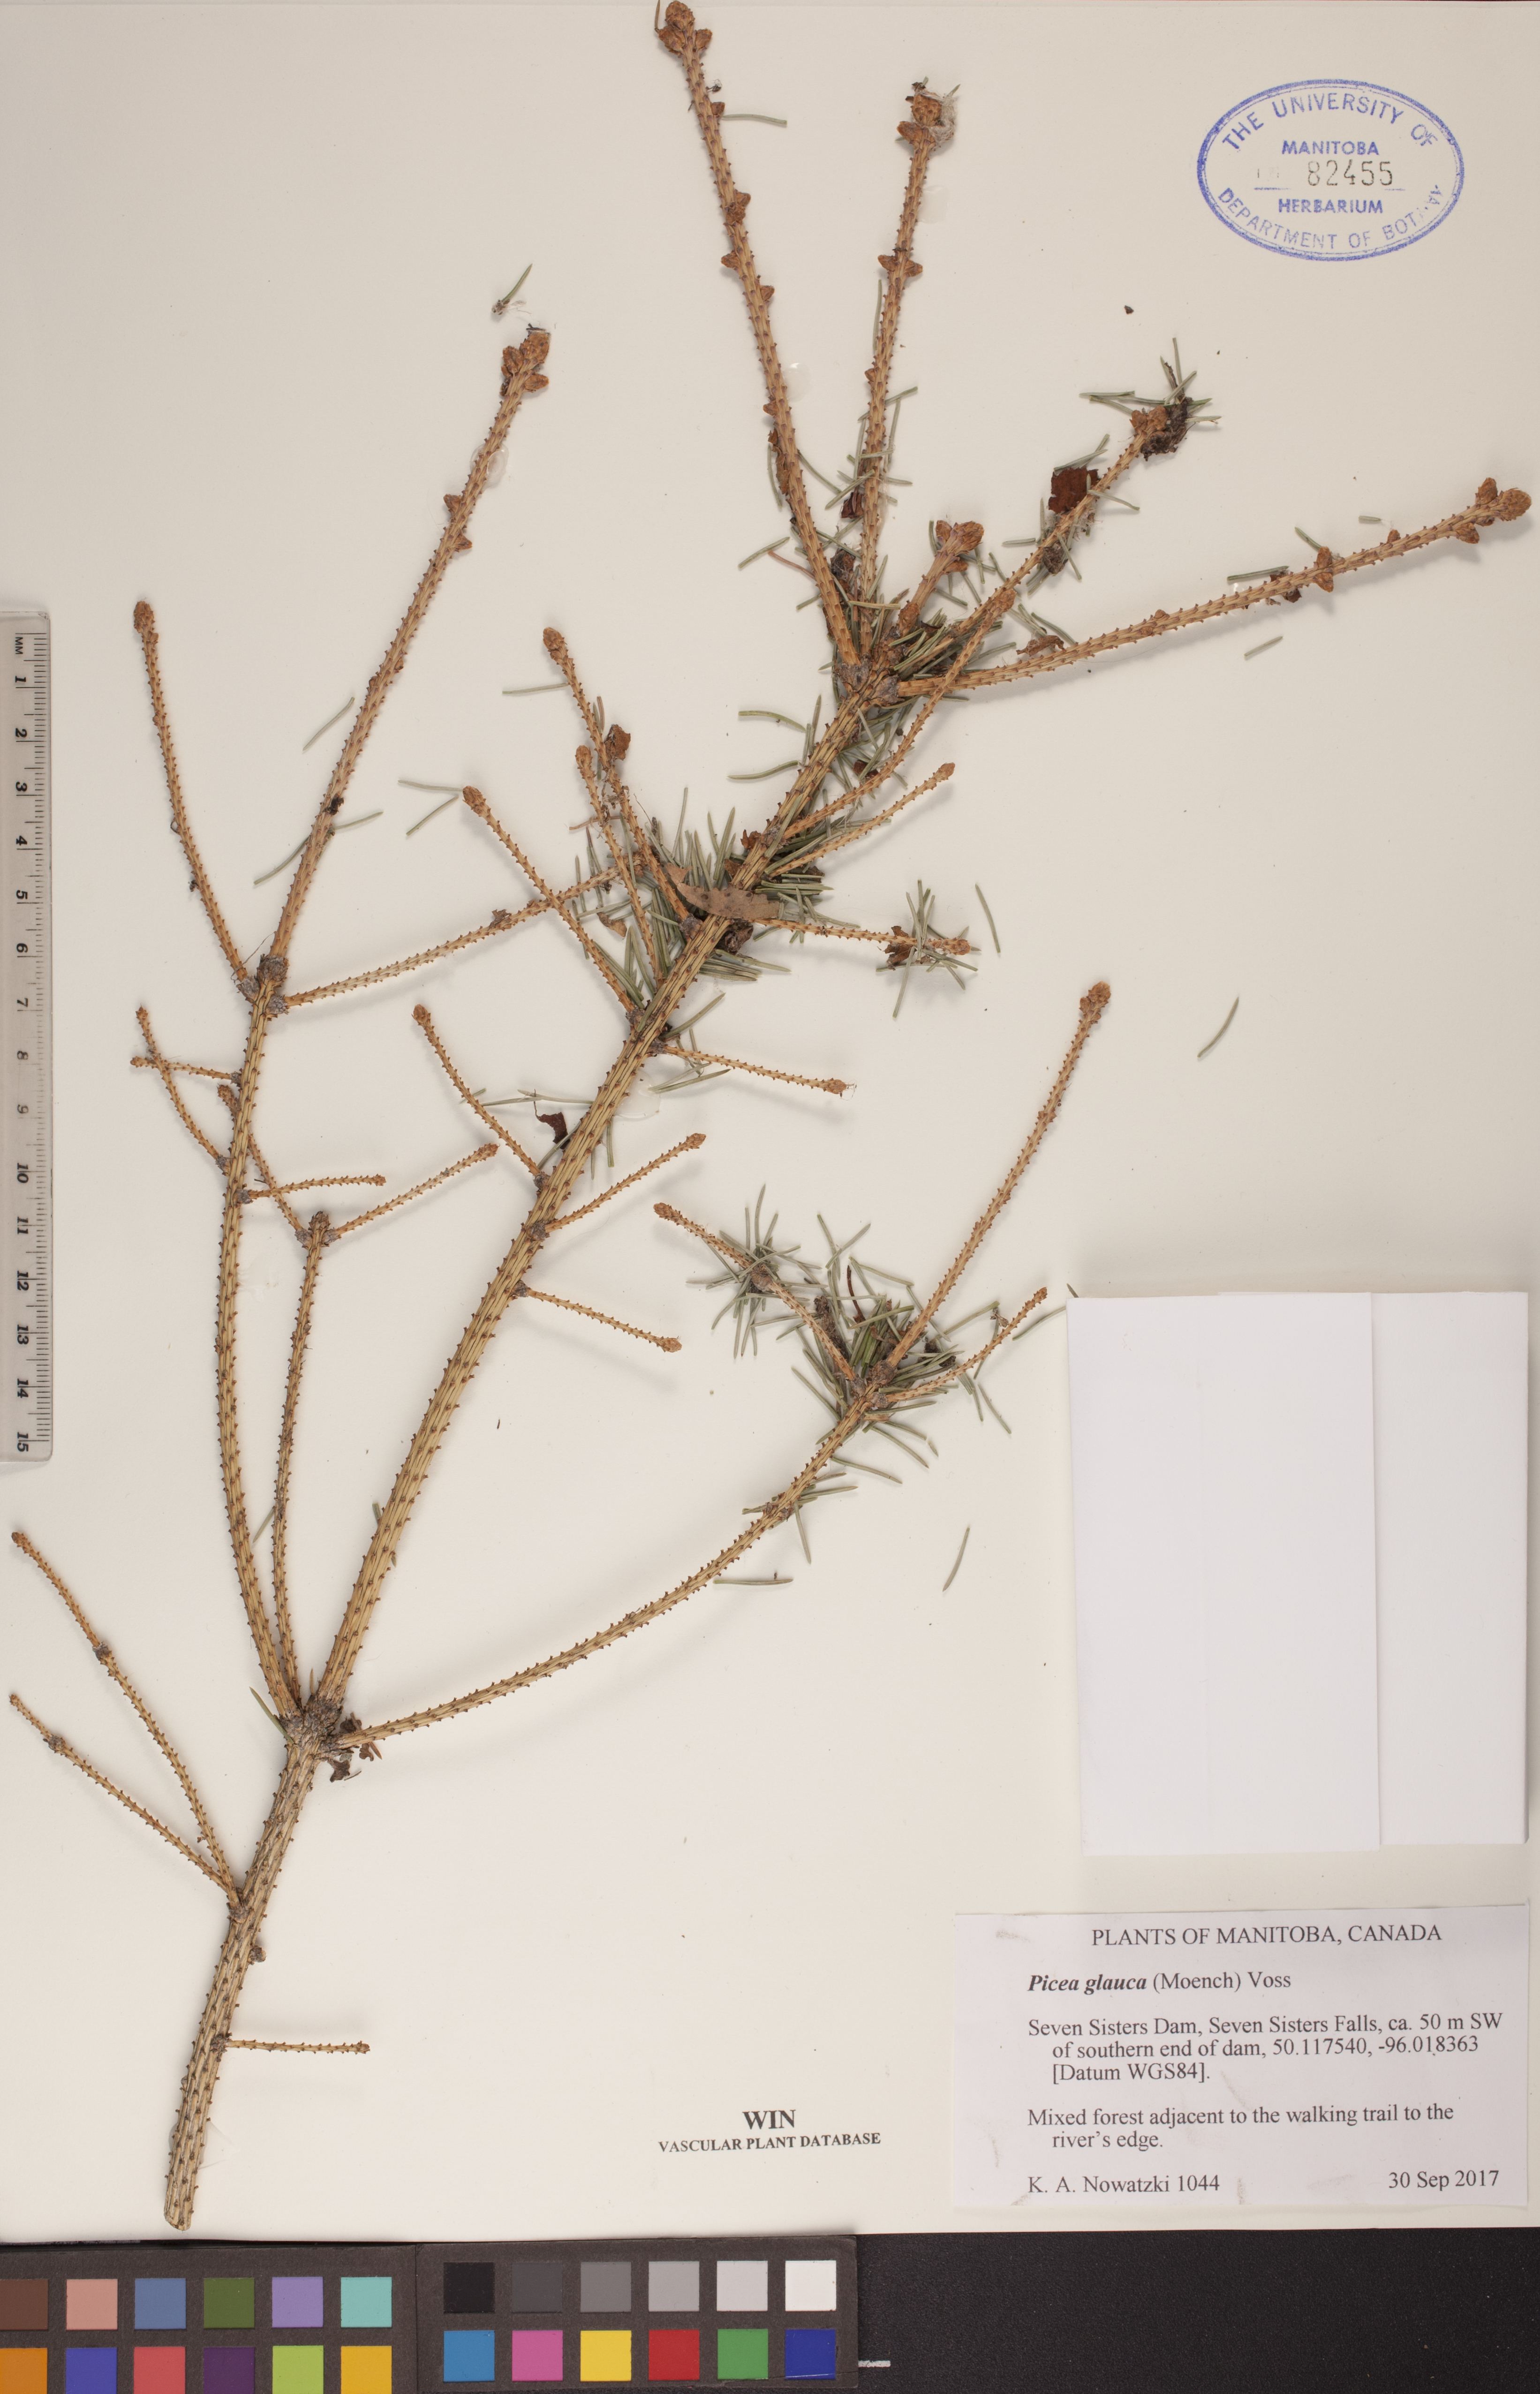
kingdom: Plantae
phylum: Tracheophyta
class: Pinopsida
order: Pinales
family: Pinaceae
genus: Picea
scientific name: Picea glauca
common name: White spruce
